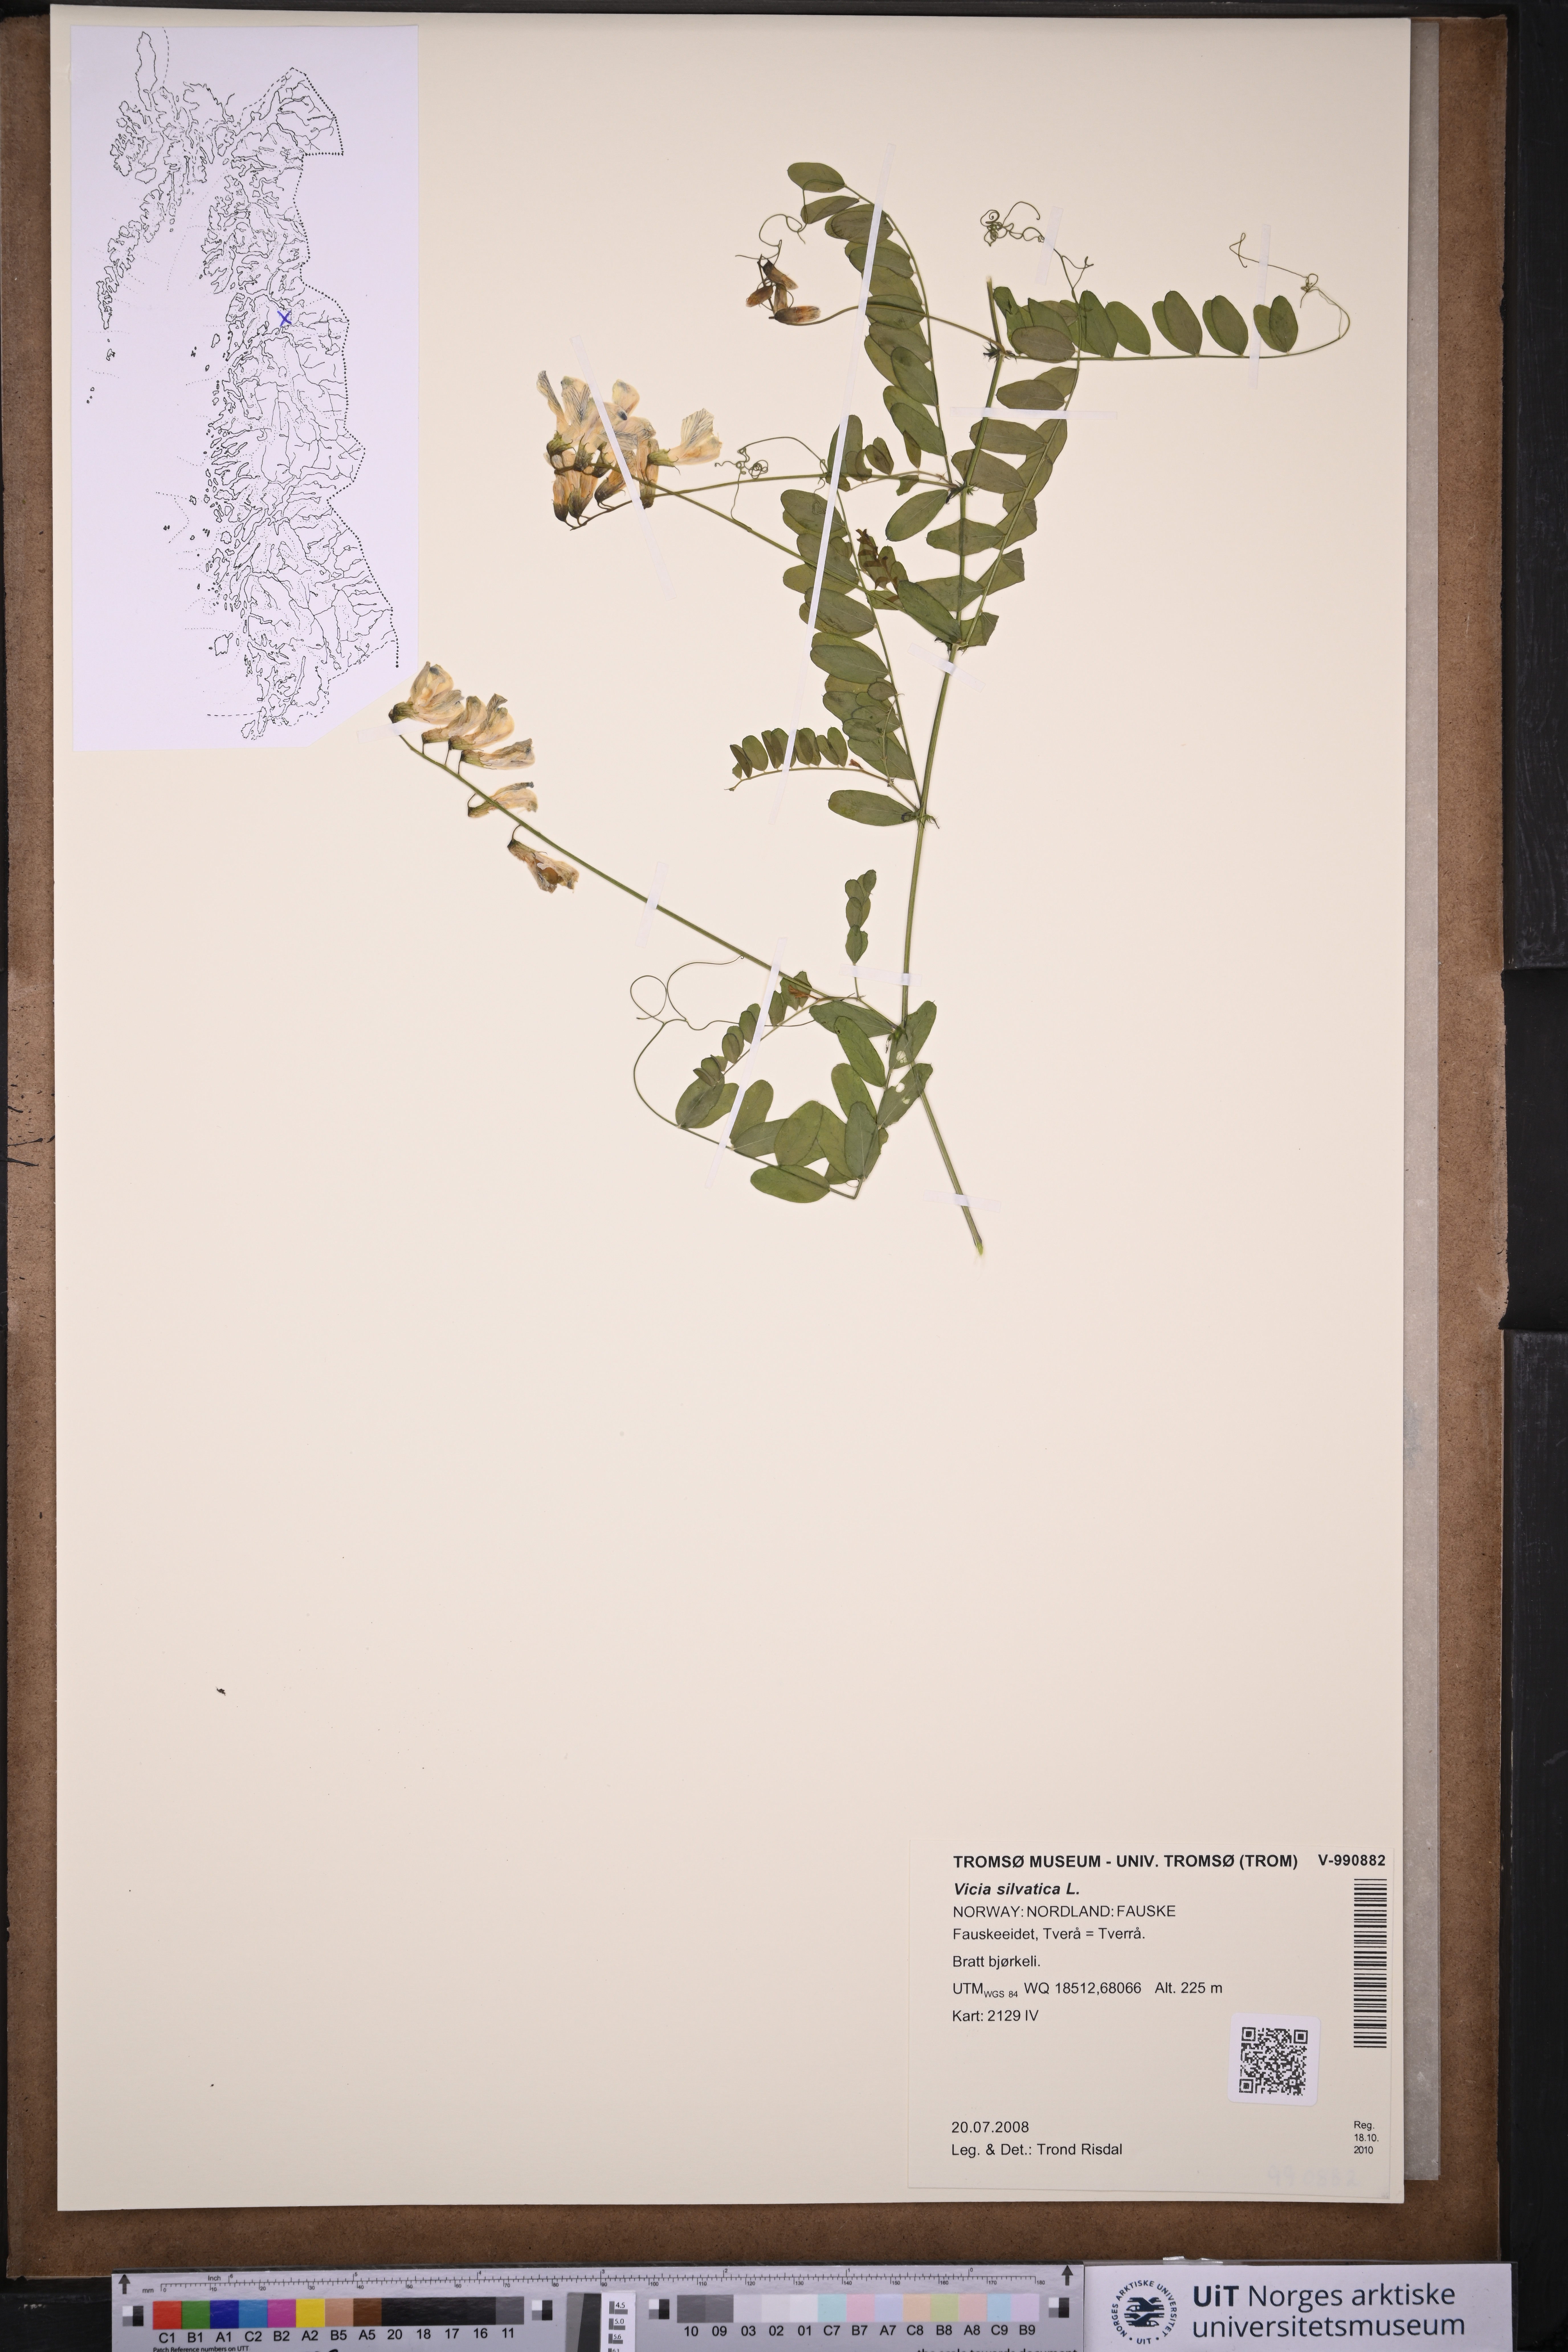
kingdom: Plantae
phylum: Tracheophyta
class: Magnoliopsida
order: Fabales
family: Fabaceae
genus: Vicia
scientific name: Vicia sylvatica
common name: Wood vetch
